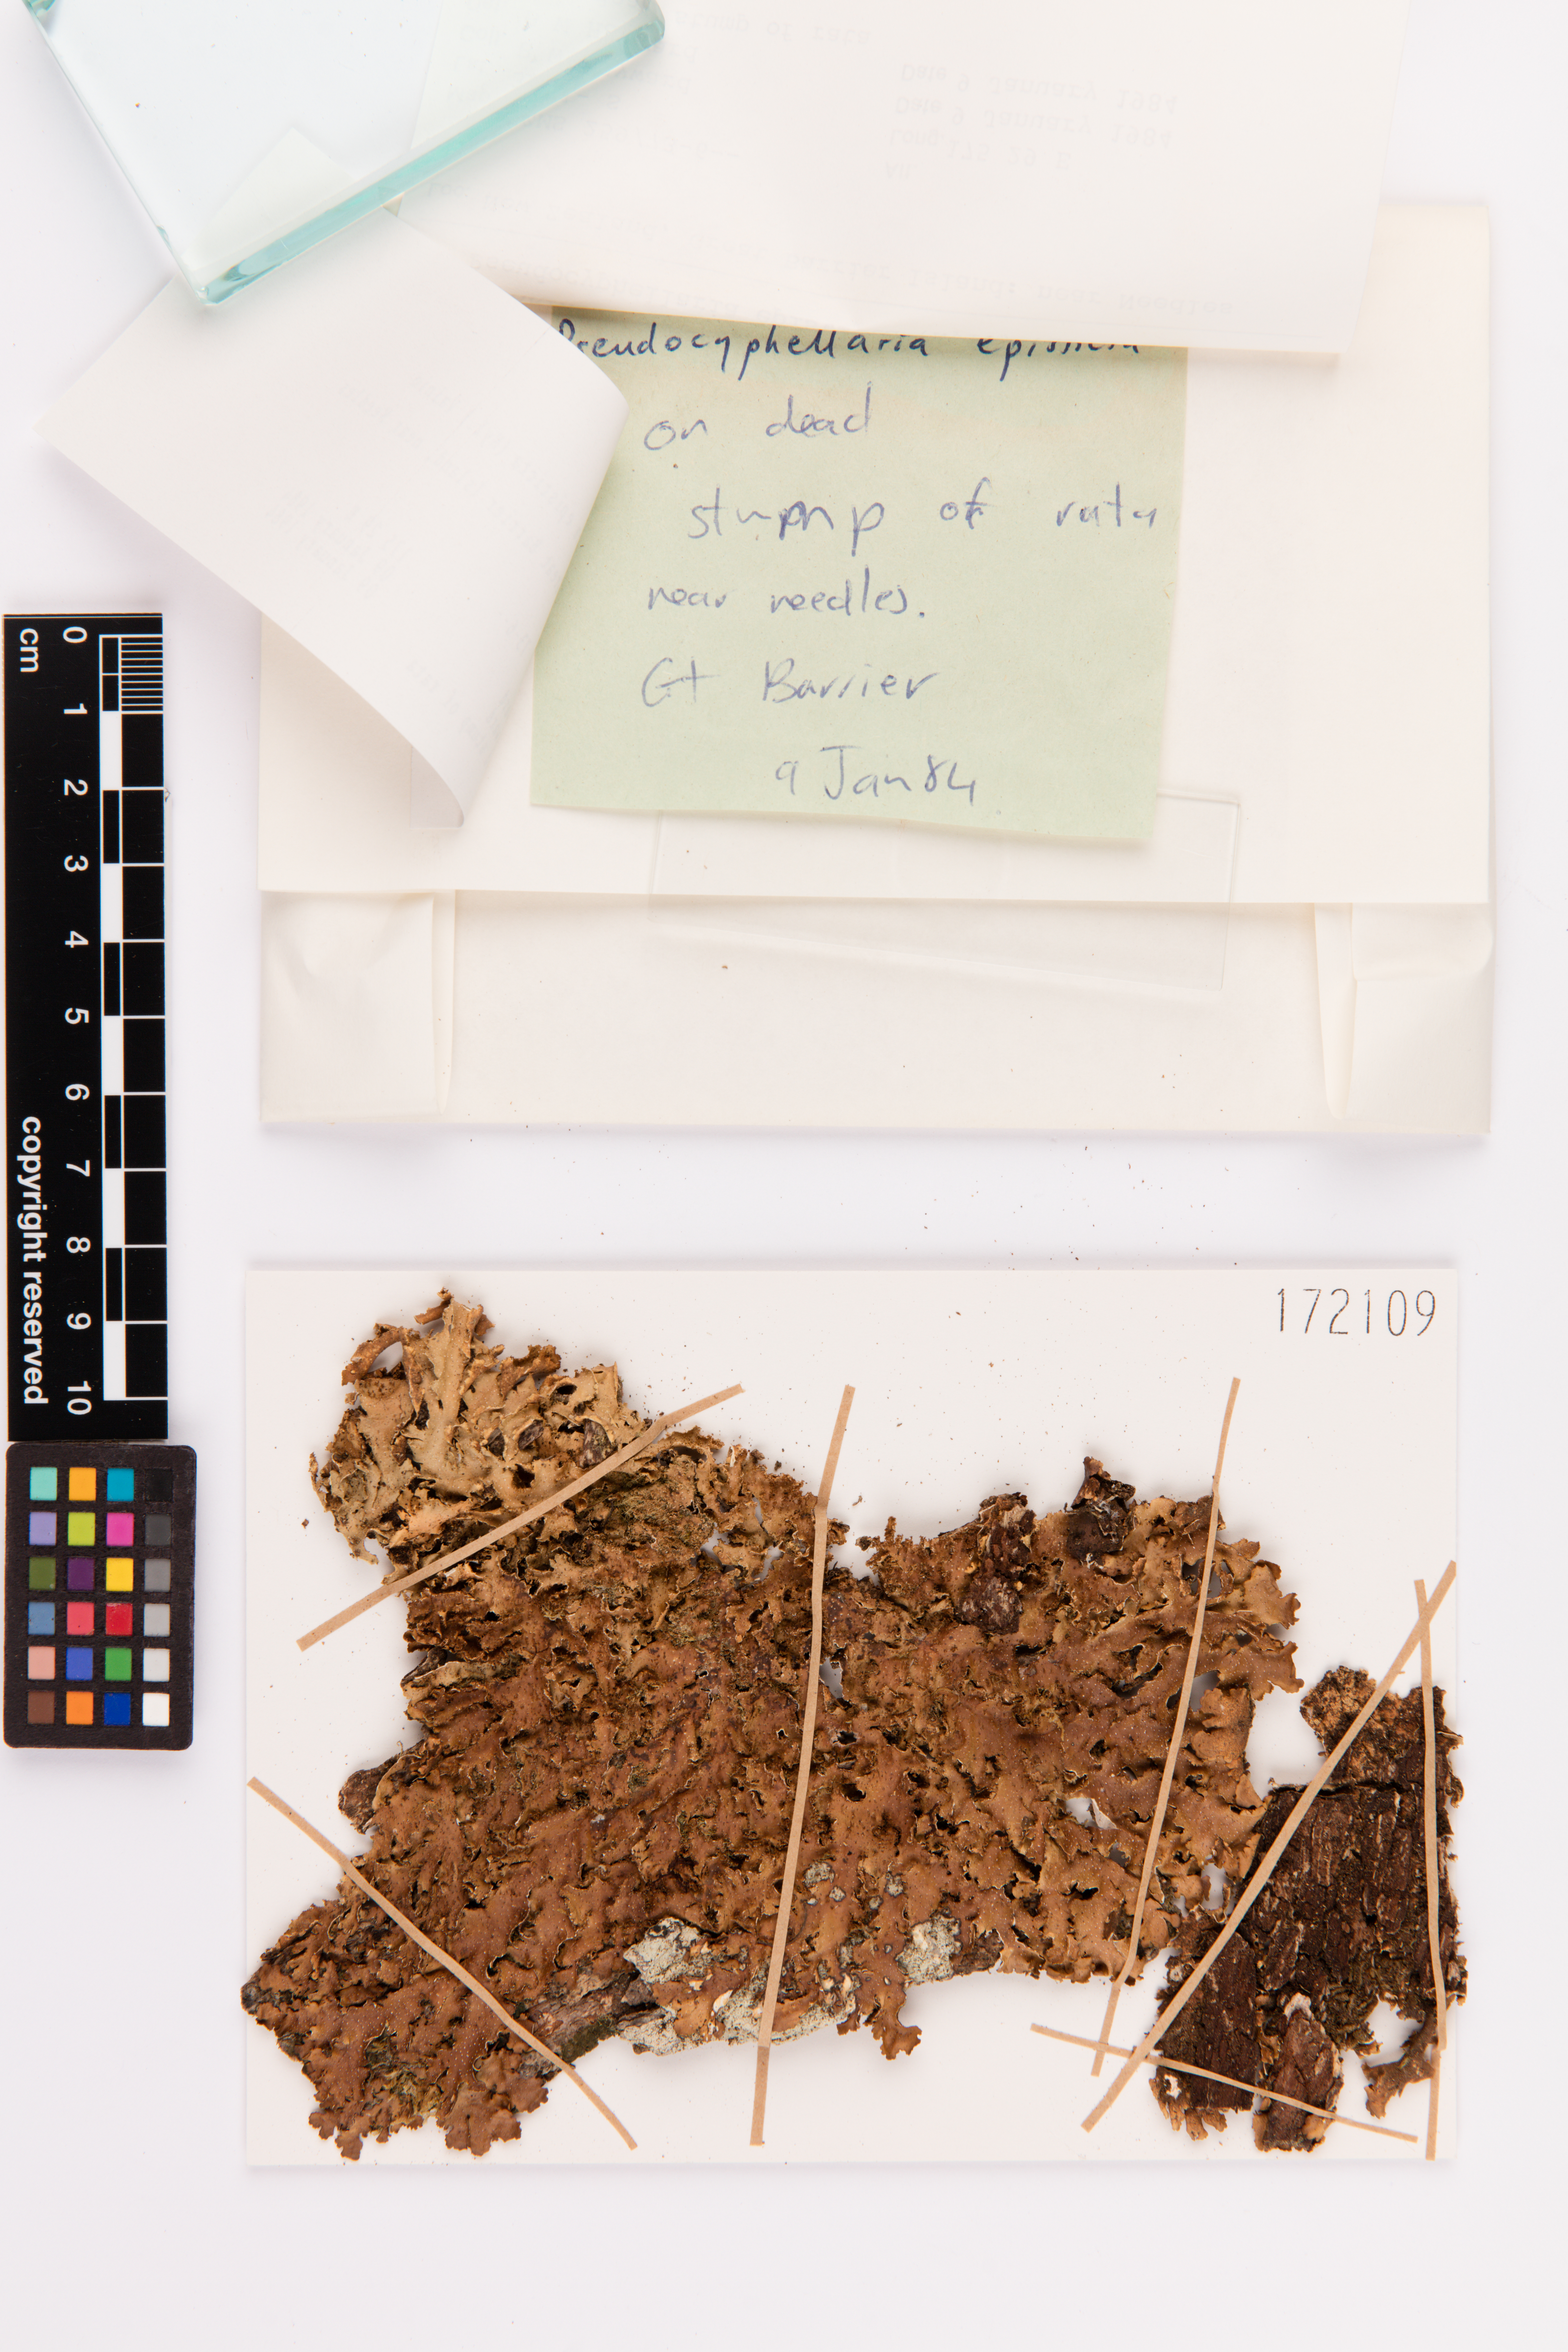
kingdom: Fungi
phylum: Ascomycota
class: Lecanoromycetes
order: Peltigerales
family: Lobariaceae
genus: Pseudocyphellaria
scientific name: Pseudocyphellaria episticta
